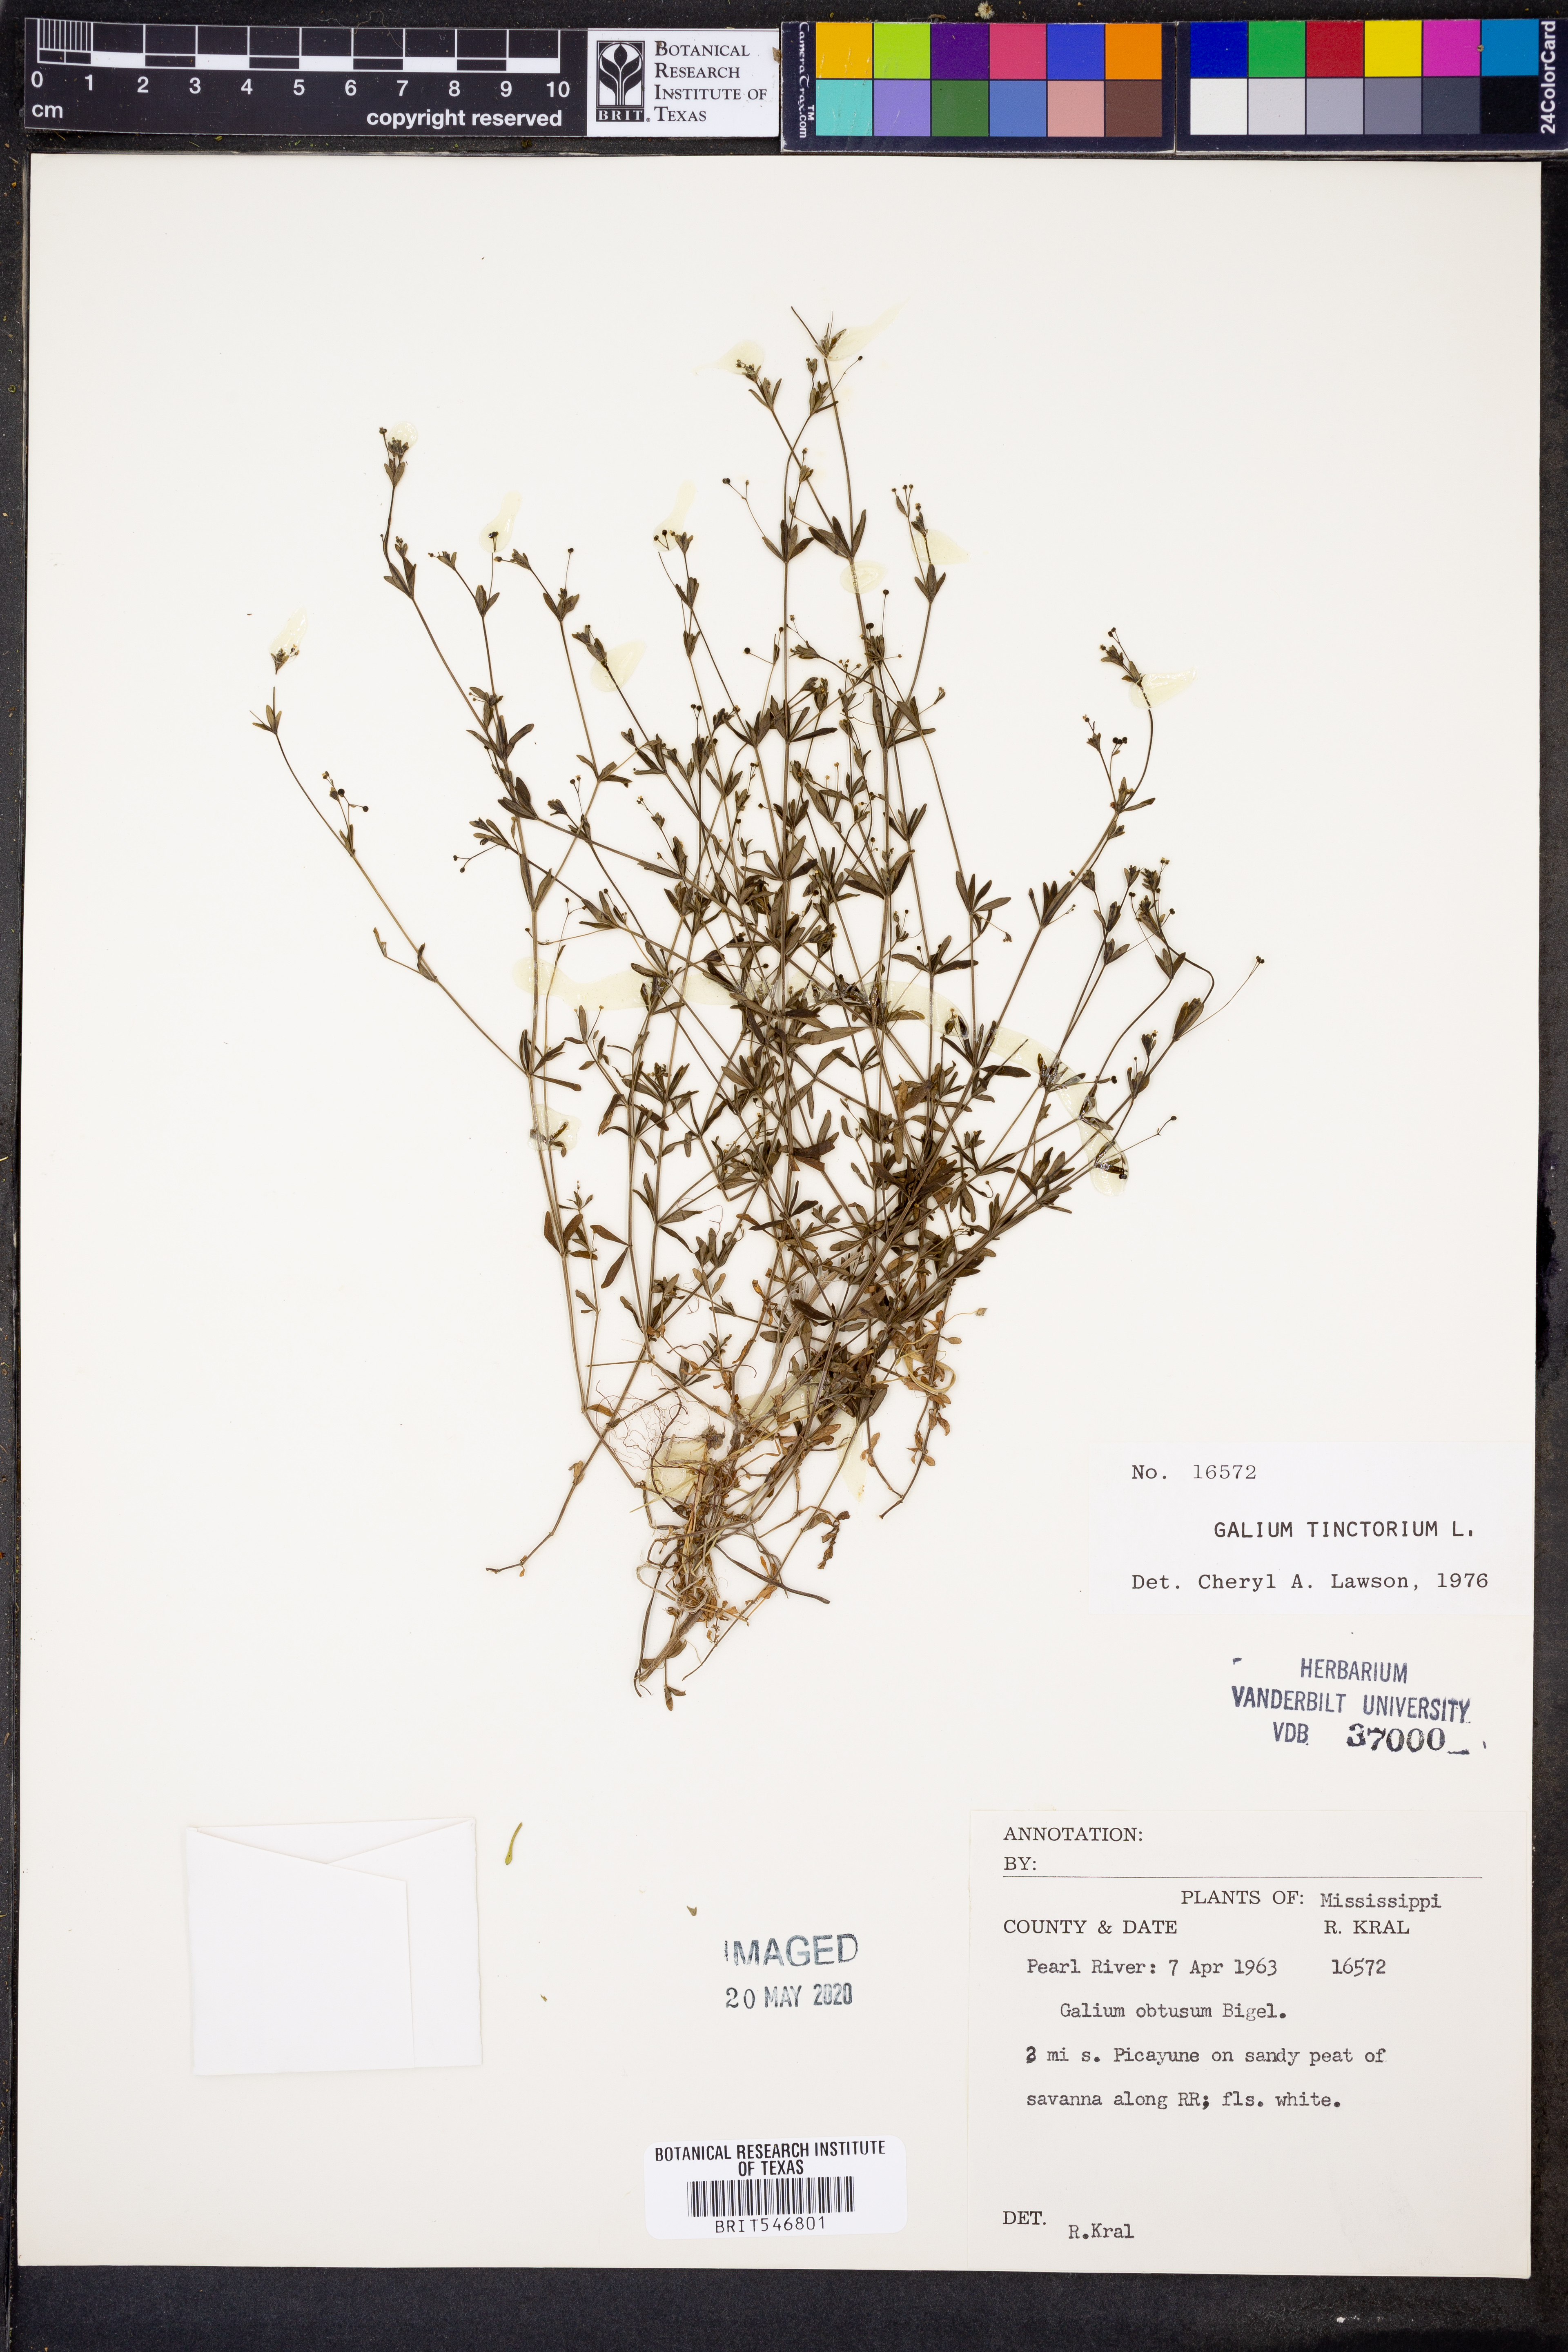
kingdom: Plantae
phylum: Tracheophyta
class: Magnoliopsida
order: Gentianales
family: Rubiaceae
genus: Asperula
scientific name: Asperula tinctoria
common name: Dyer's woodruff
